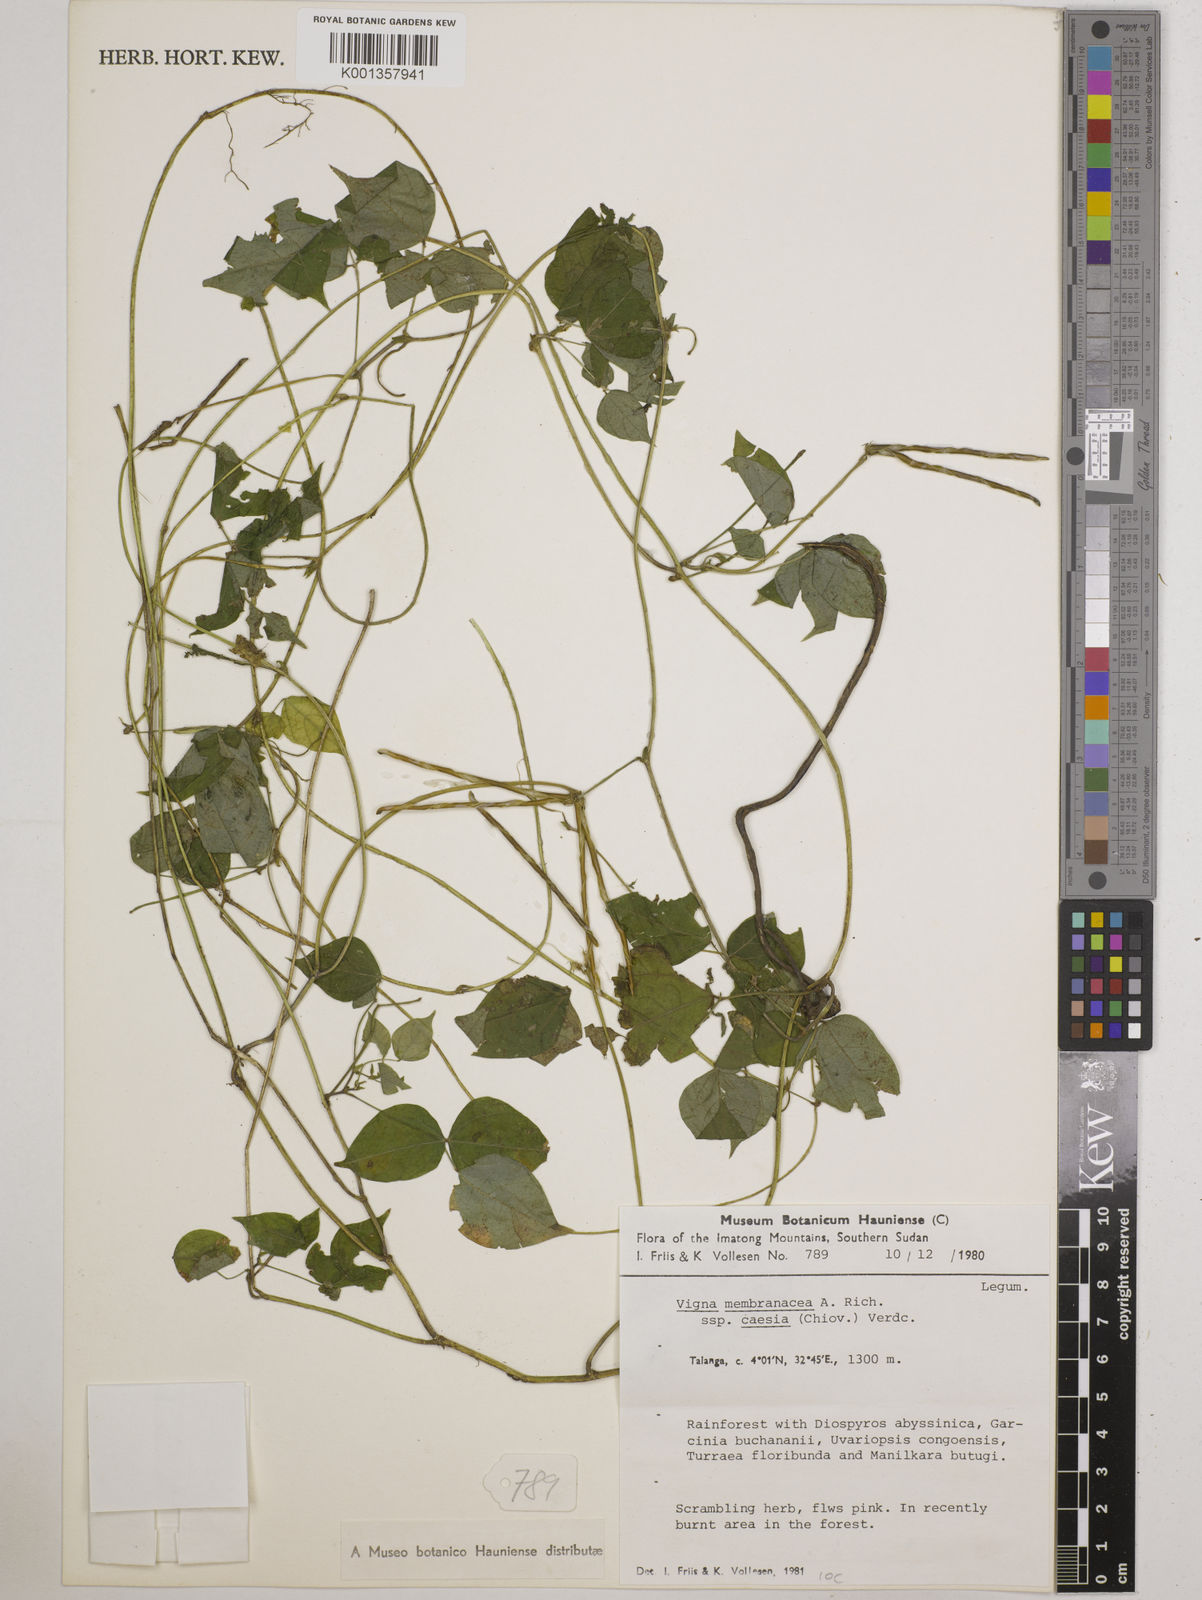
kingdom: Plantae
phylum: Tracheophyta
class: Magnoliopsida
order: Fabales
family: Fabaceae
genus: Vigna
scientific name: Vigna membranacea
